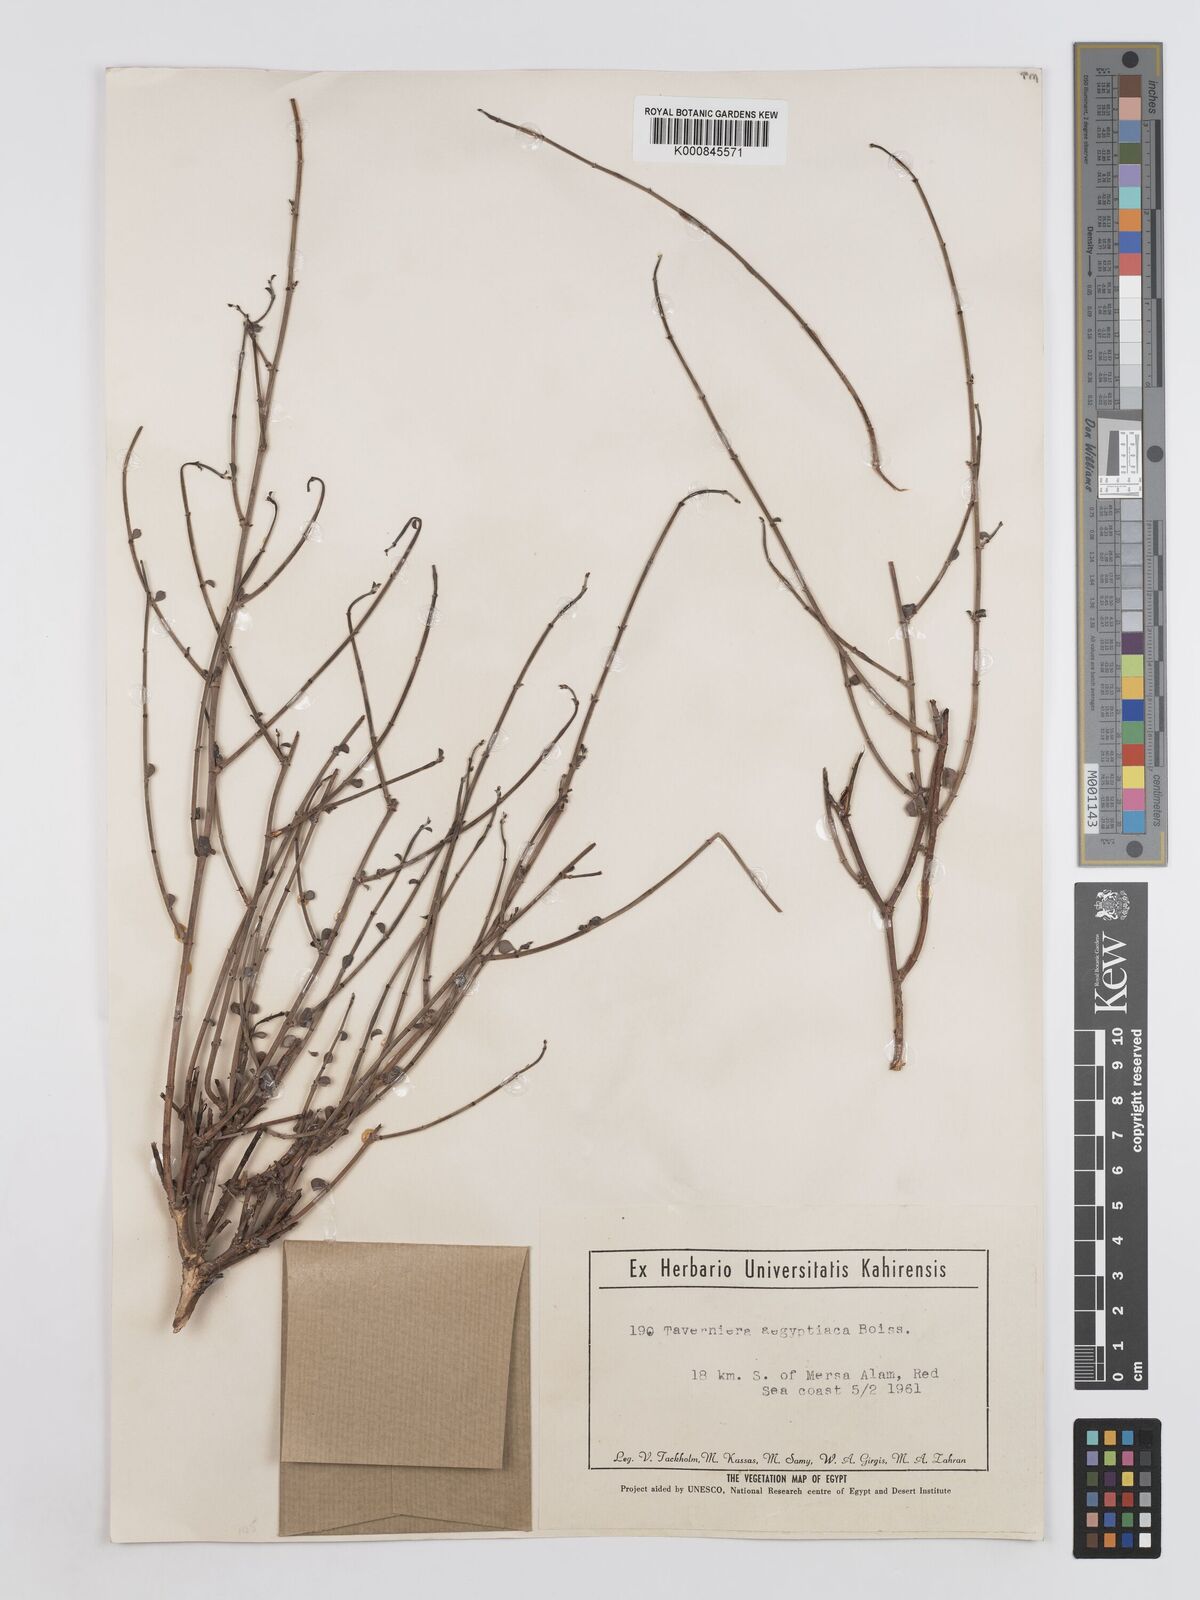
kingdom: Plantae
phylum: Tracheophyta
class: Magnoliopsida
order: Fabales
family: Fabaceae
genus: Taverniera
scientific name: Taverniera aegyptiaca
